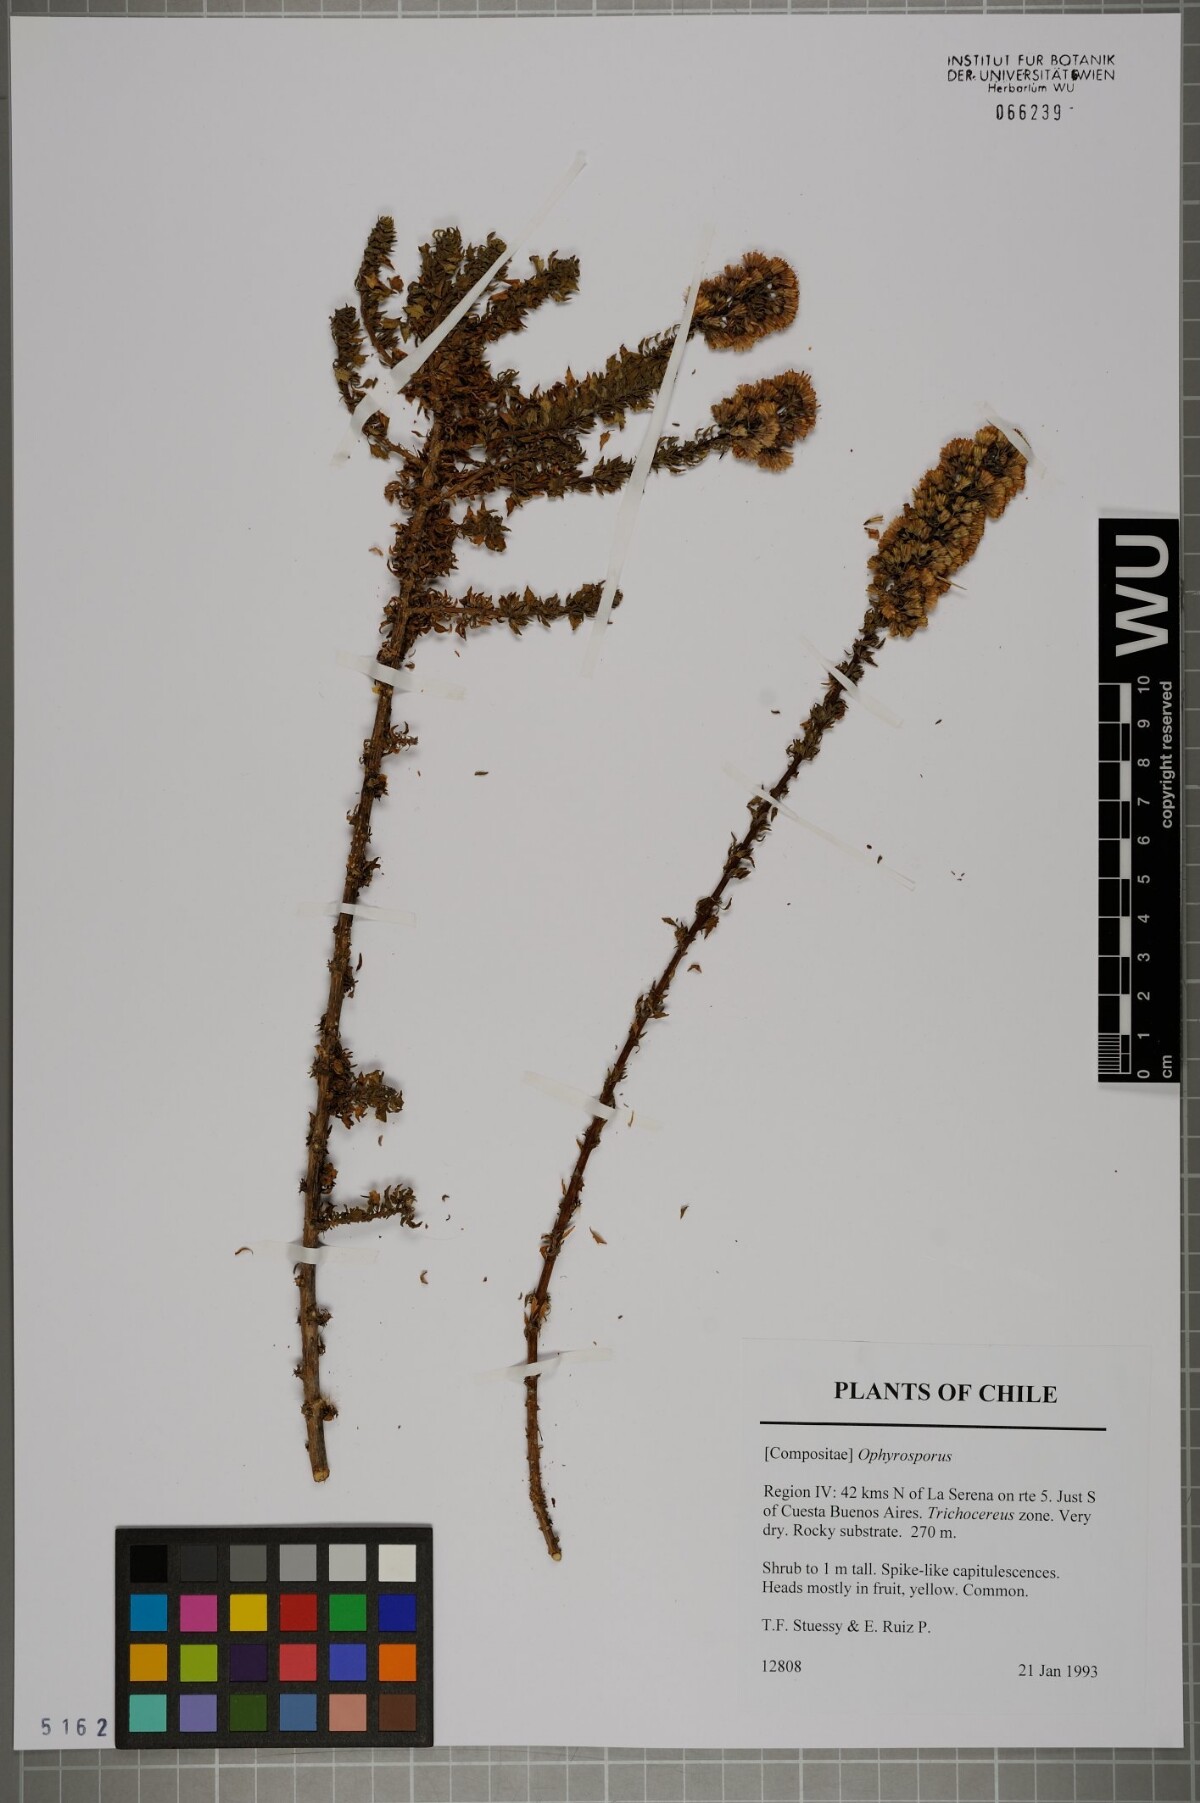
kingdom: Plantae
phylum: Tracheophyta
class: Magnoliopsida
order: Asterales
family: Asteraceae
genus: Ophryosporus
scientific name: Ophryosporus
